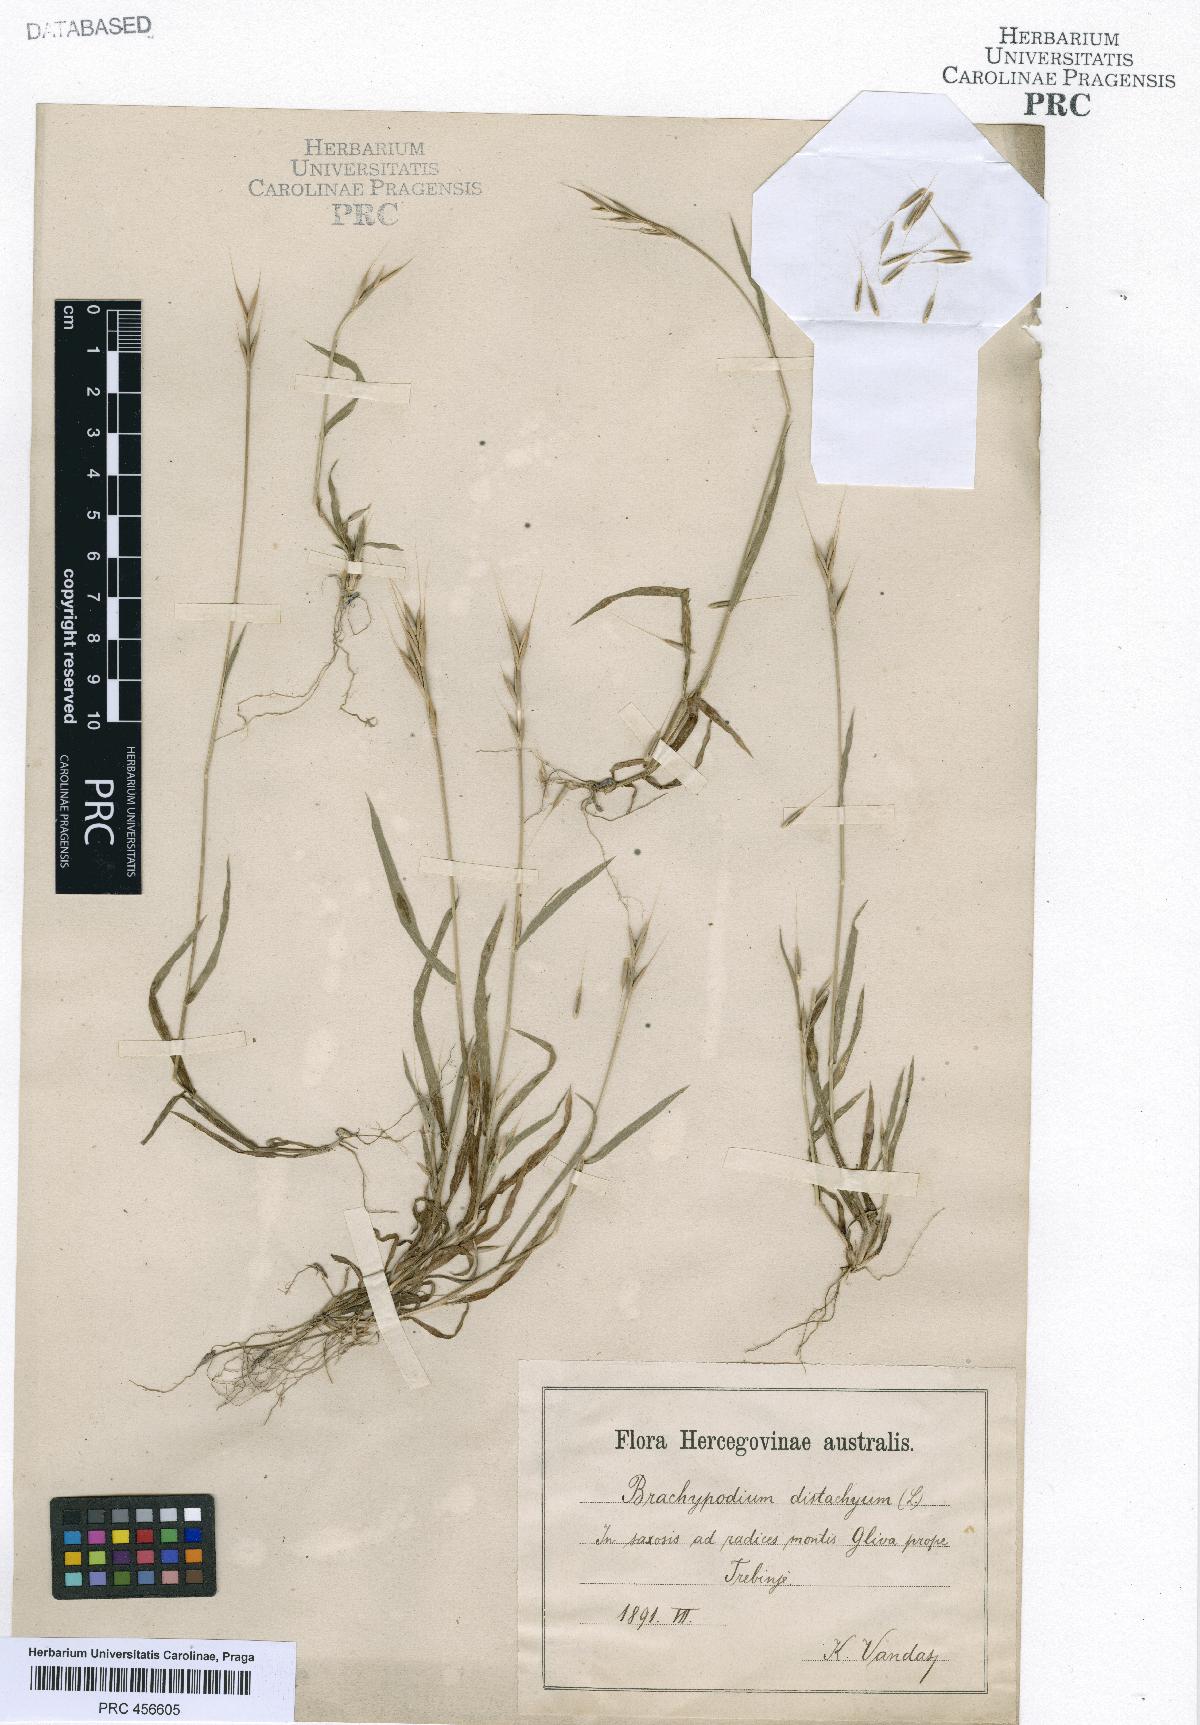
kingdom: Plantae
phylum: Tracheophyta
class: Liliopsida
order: Poales
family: Poaceae
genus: Brachypodium
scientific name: Brachypodium distachyon
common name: Stiff brome
